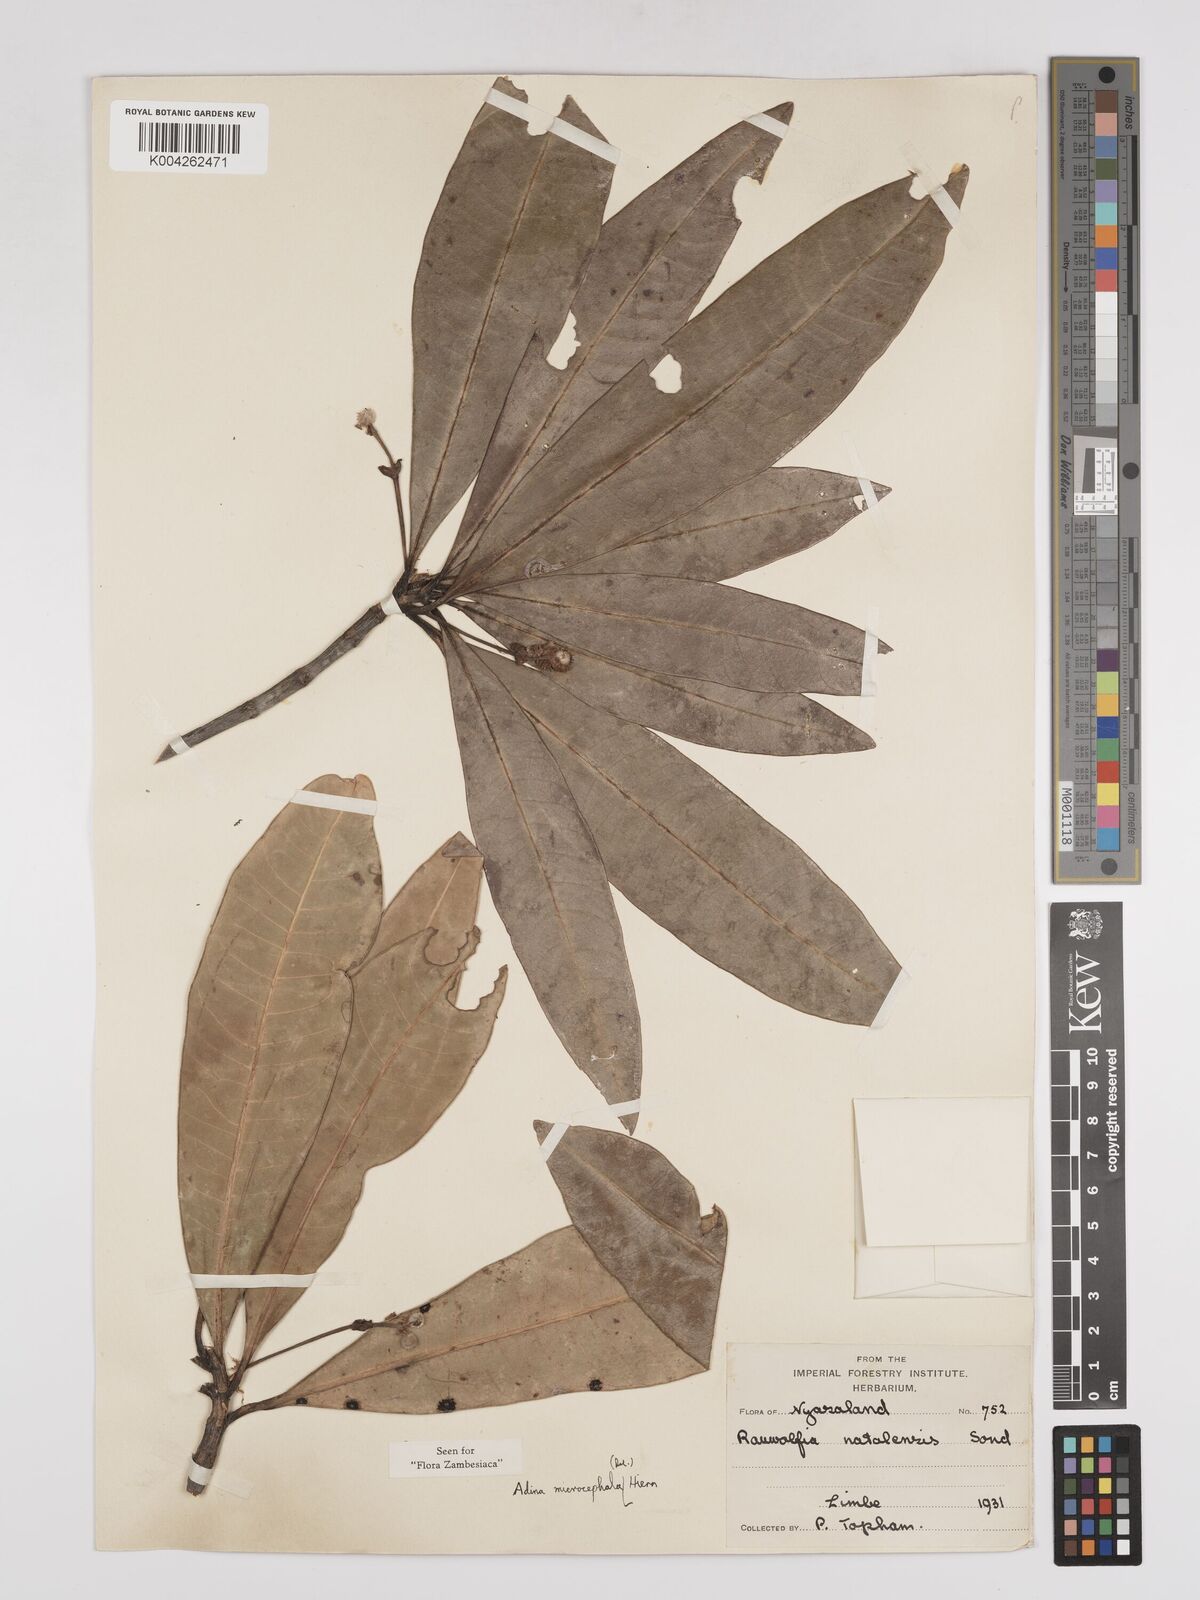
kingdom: Plantae
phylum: Tracheophyta
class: Magnoliopsida
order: Gentianales
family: Rubiaceae
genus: Breonadia
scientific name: Breonadia salicina
